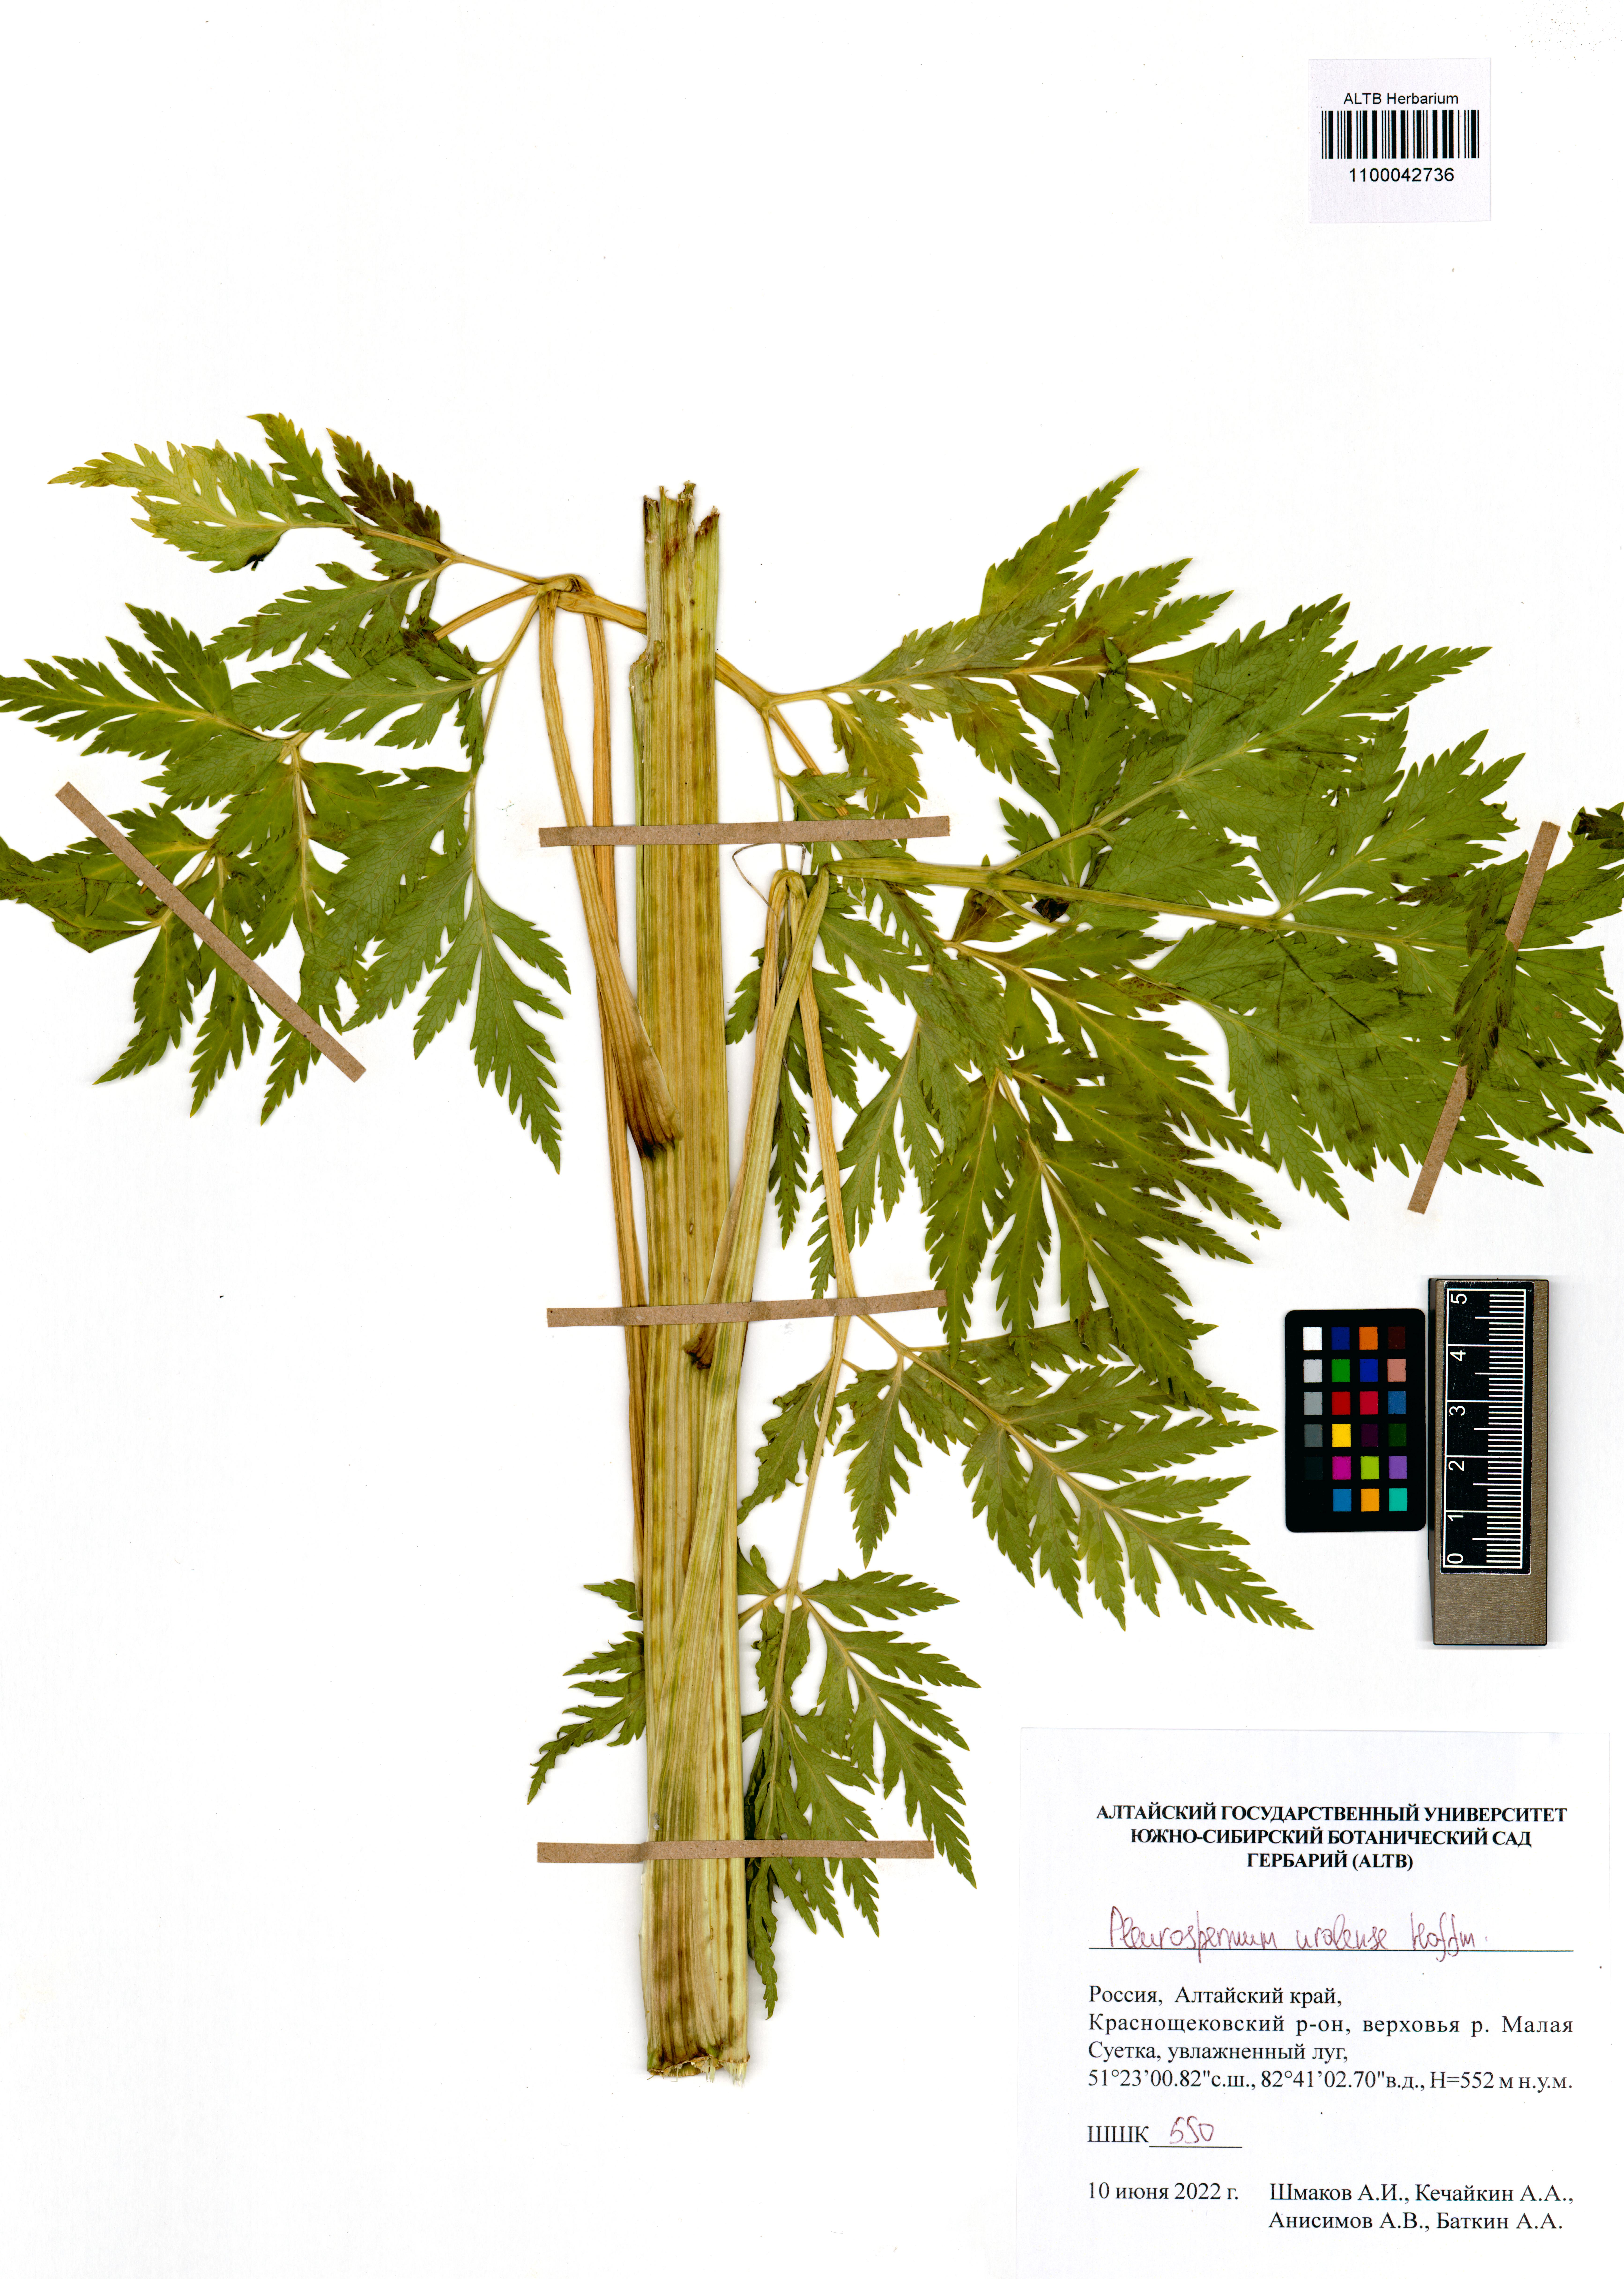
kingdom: Plantae
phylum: Tracheophyta
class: Magnoliopsida
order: Apiales
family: Apiaceae
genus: Pleurospermum
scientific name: Pleurospermum uralense
